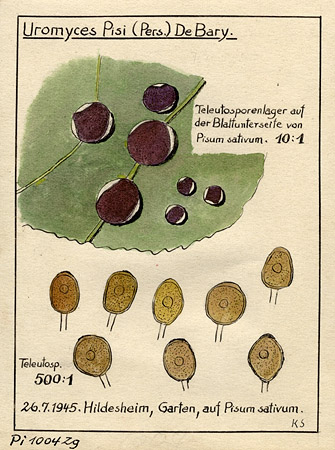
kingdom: Fungi
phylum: Basidiomycota
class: Pucciniomycetes
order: Pucciniales
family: Pucciniaceae
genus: Uromyces
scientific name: Uromyces pisi-sativi
